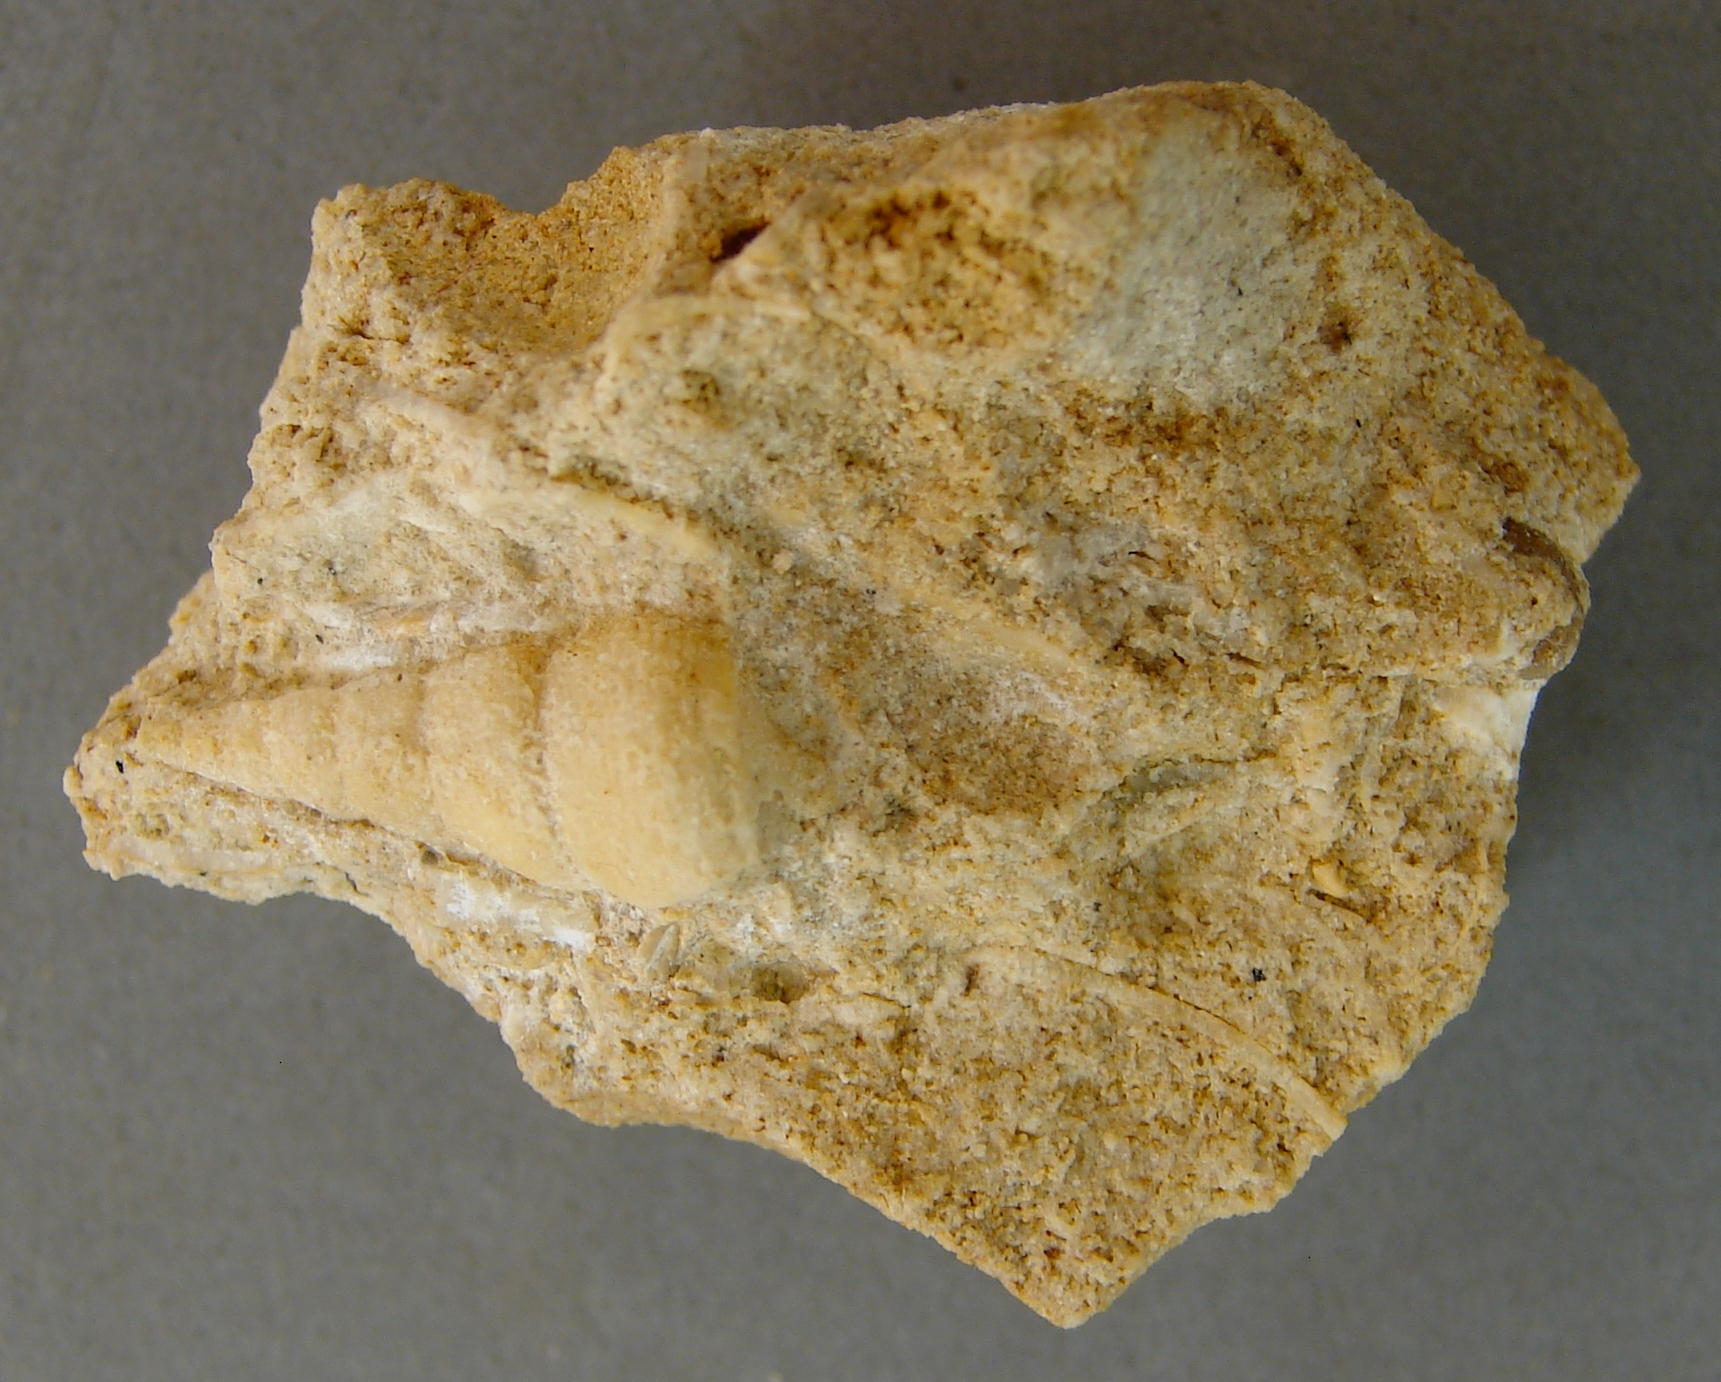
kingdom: Animalia
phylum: Mollusca
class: Gastropoda
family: Pseudomelaniidae
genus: Bourgetia
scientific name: Bourgetia
